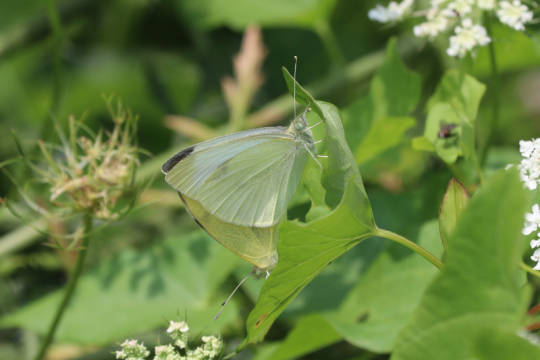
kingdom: Animalia
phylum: Arthropoda
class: Insecta
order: Lepidoptera
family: Pieridae
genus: Pieris
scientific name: Pieris rapae
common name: Cabbage White
